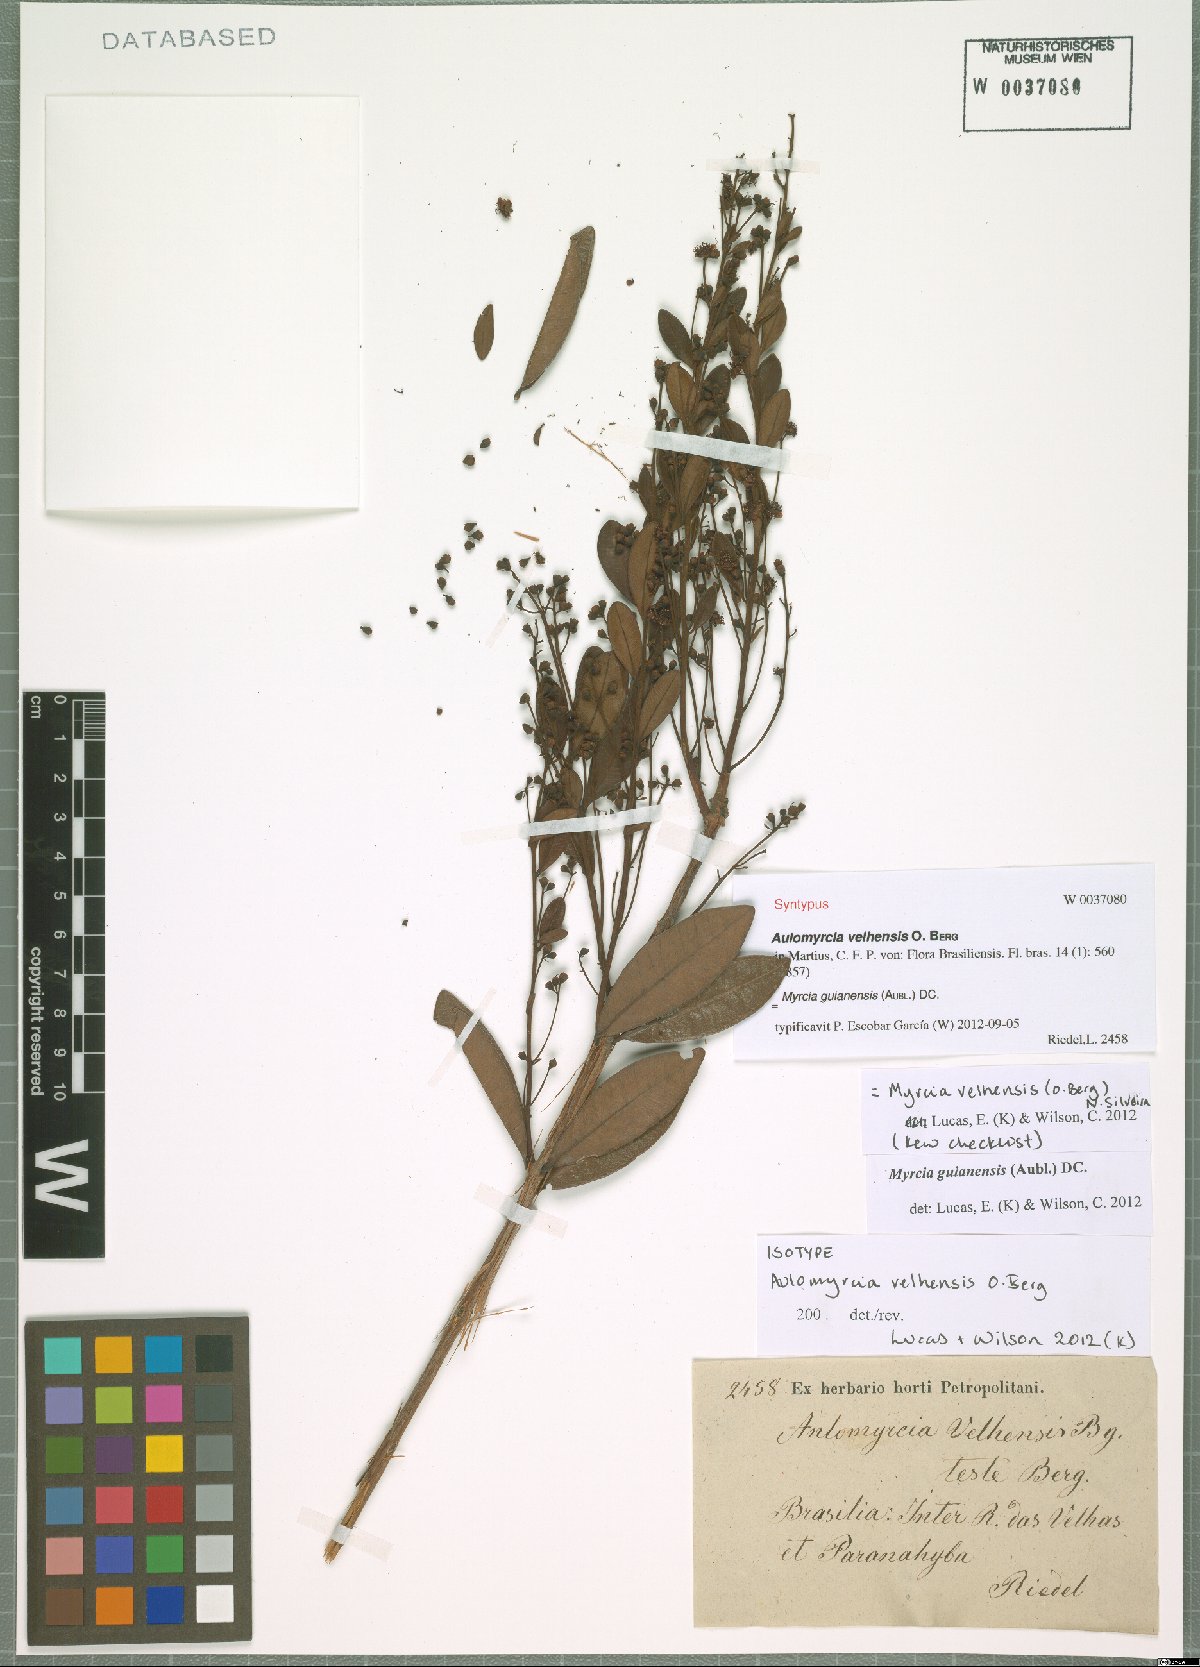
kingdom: Plantae
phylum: Tracheophyta
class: Magnoliopsida
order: Myrtales
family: Myrtaceae
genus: Myrcia
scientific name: Myrcia guianensis
